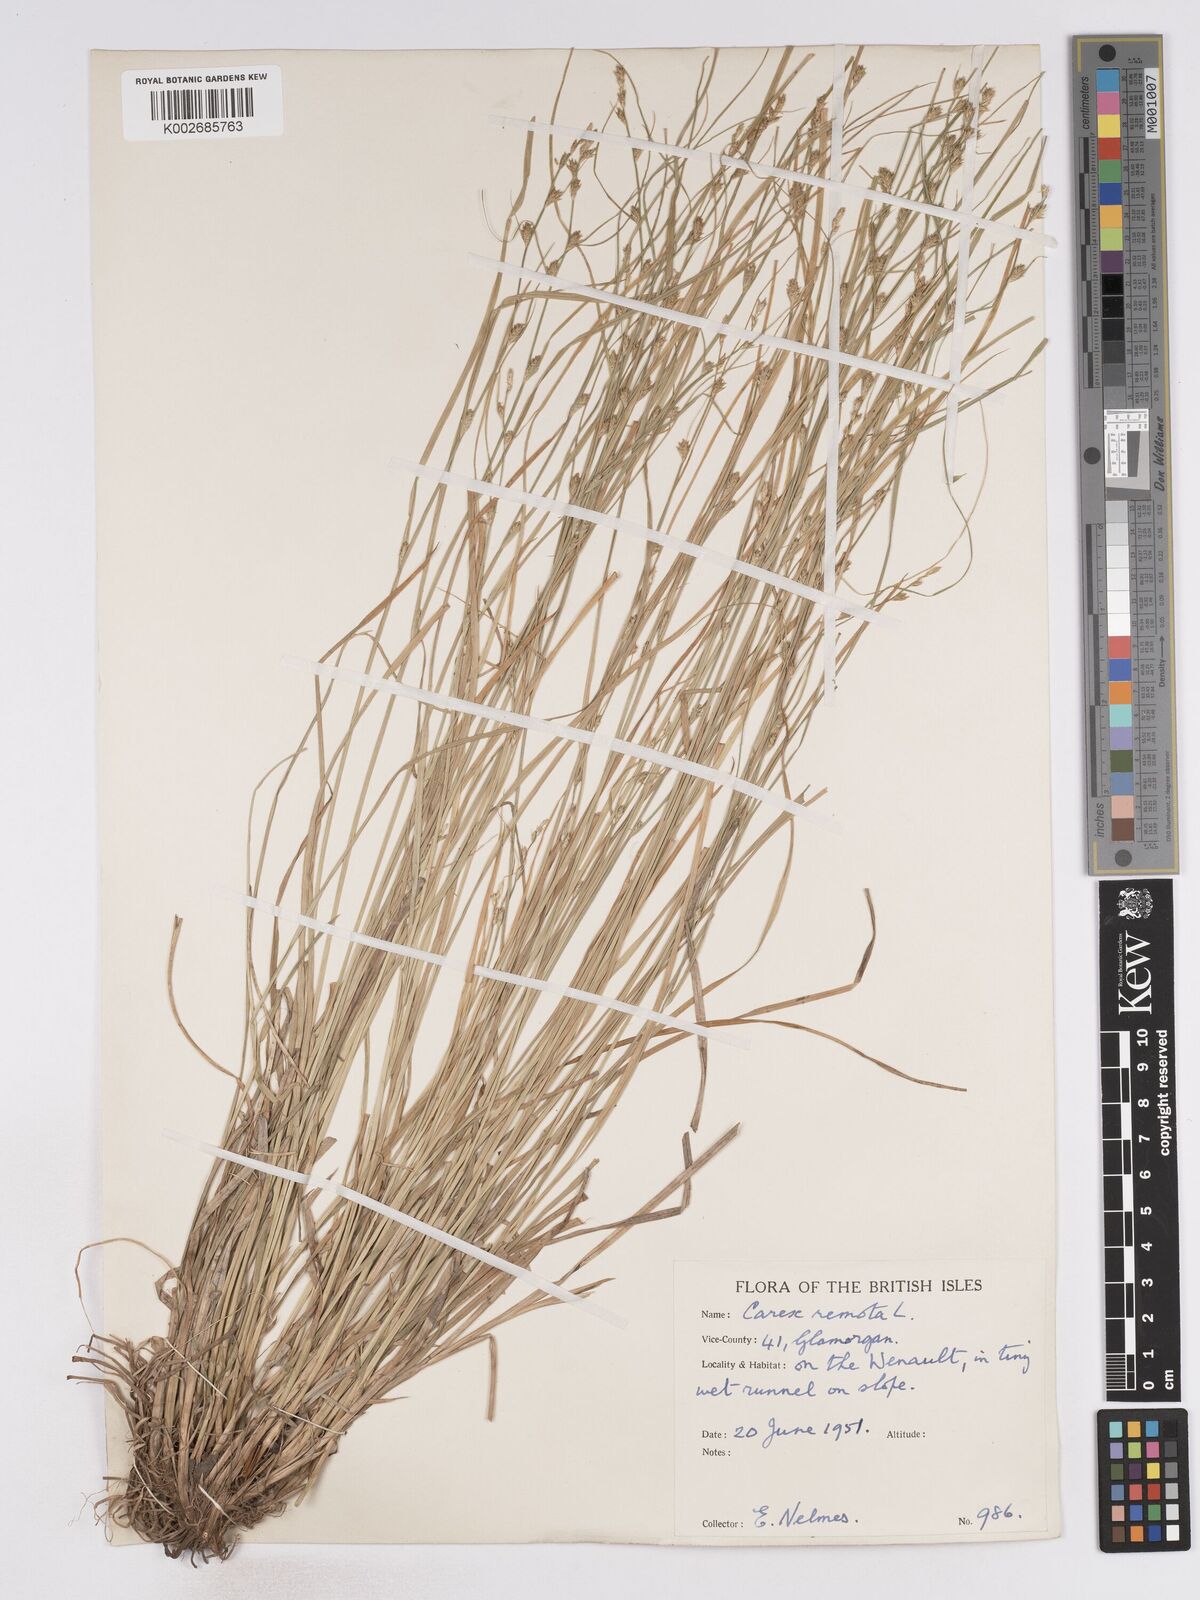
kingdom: Plantae
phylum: Tracheophyta
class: Liliopsida
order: Poales
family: Cyperaceae
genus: Carex
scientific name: Carex remota
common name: Remote sedge
